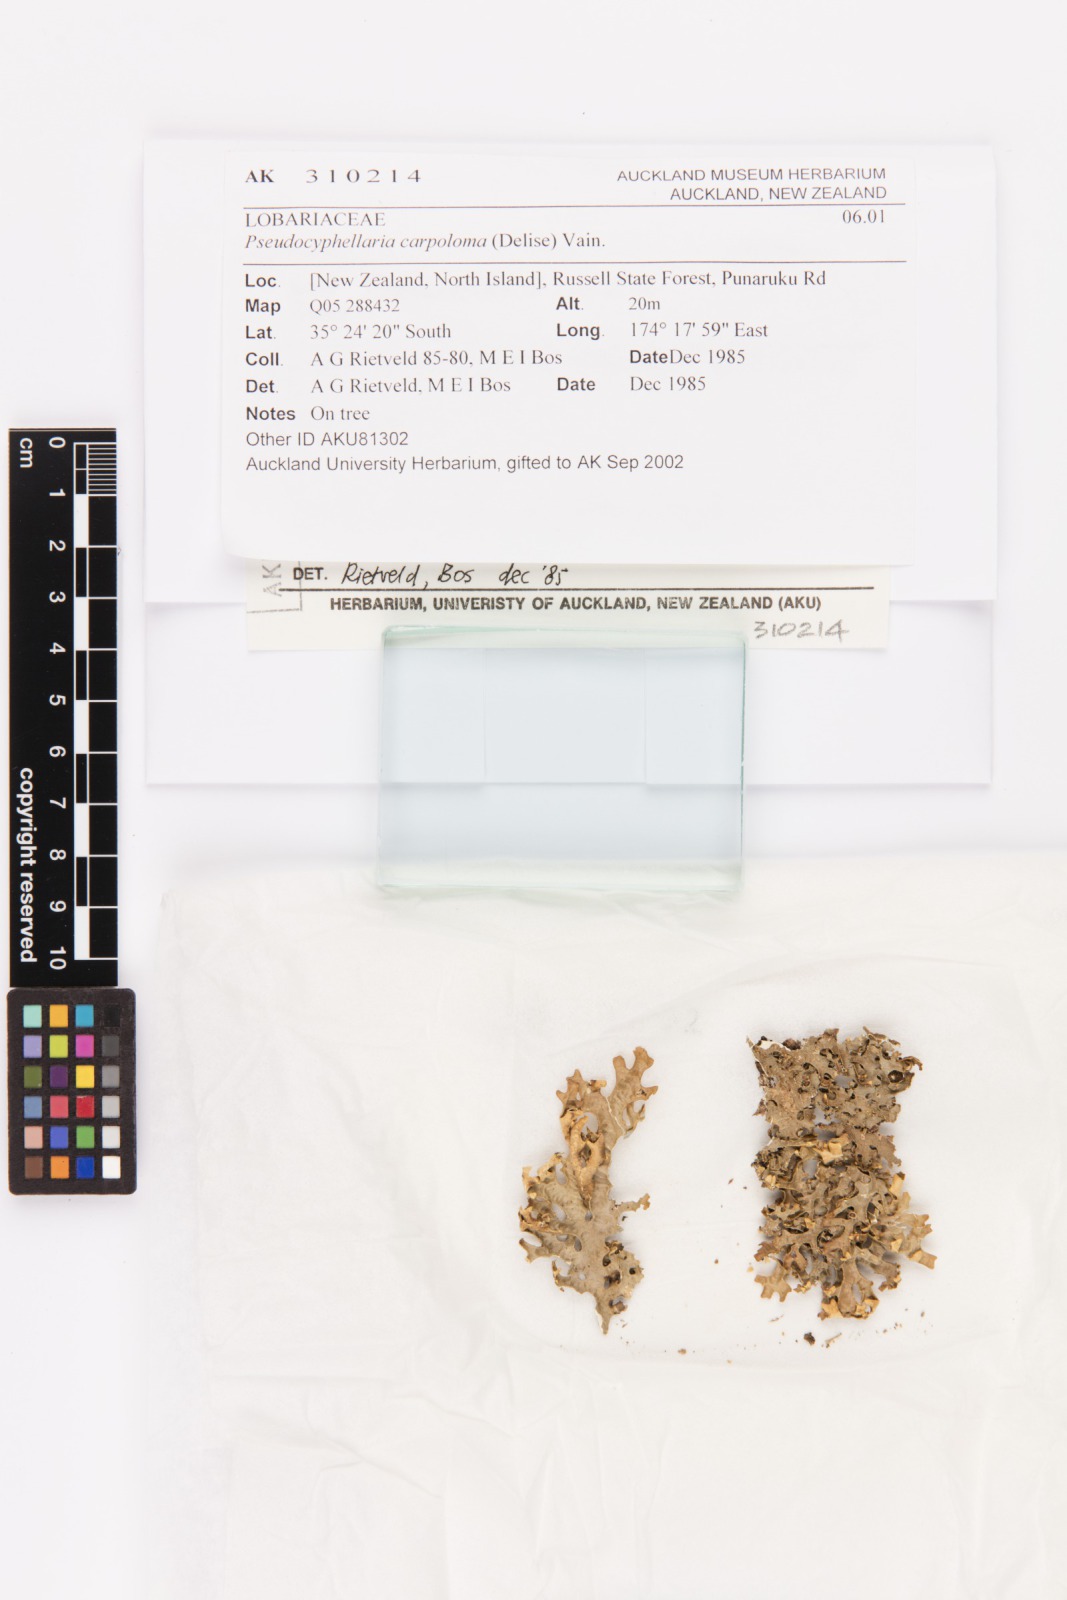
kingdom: Fungi
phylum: Ascomycota
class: Lecanoromycetes
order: Peltigerales
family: Lobariaceae
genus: Pseudocyphellaria
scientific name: Pseudocyphellaria carpoloma
